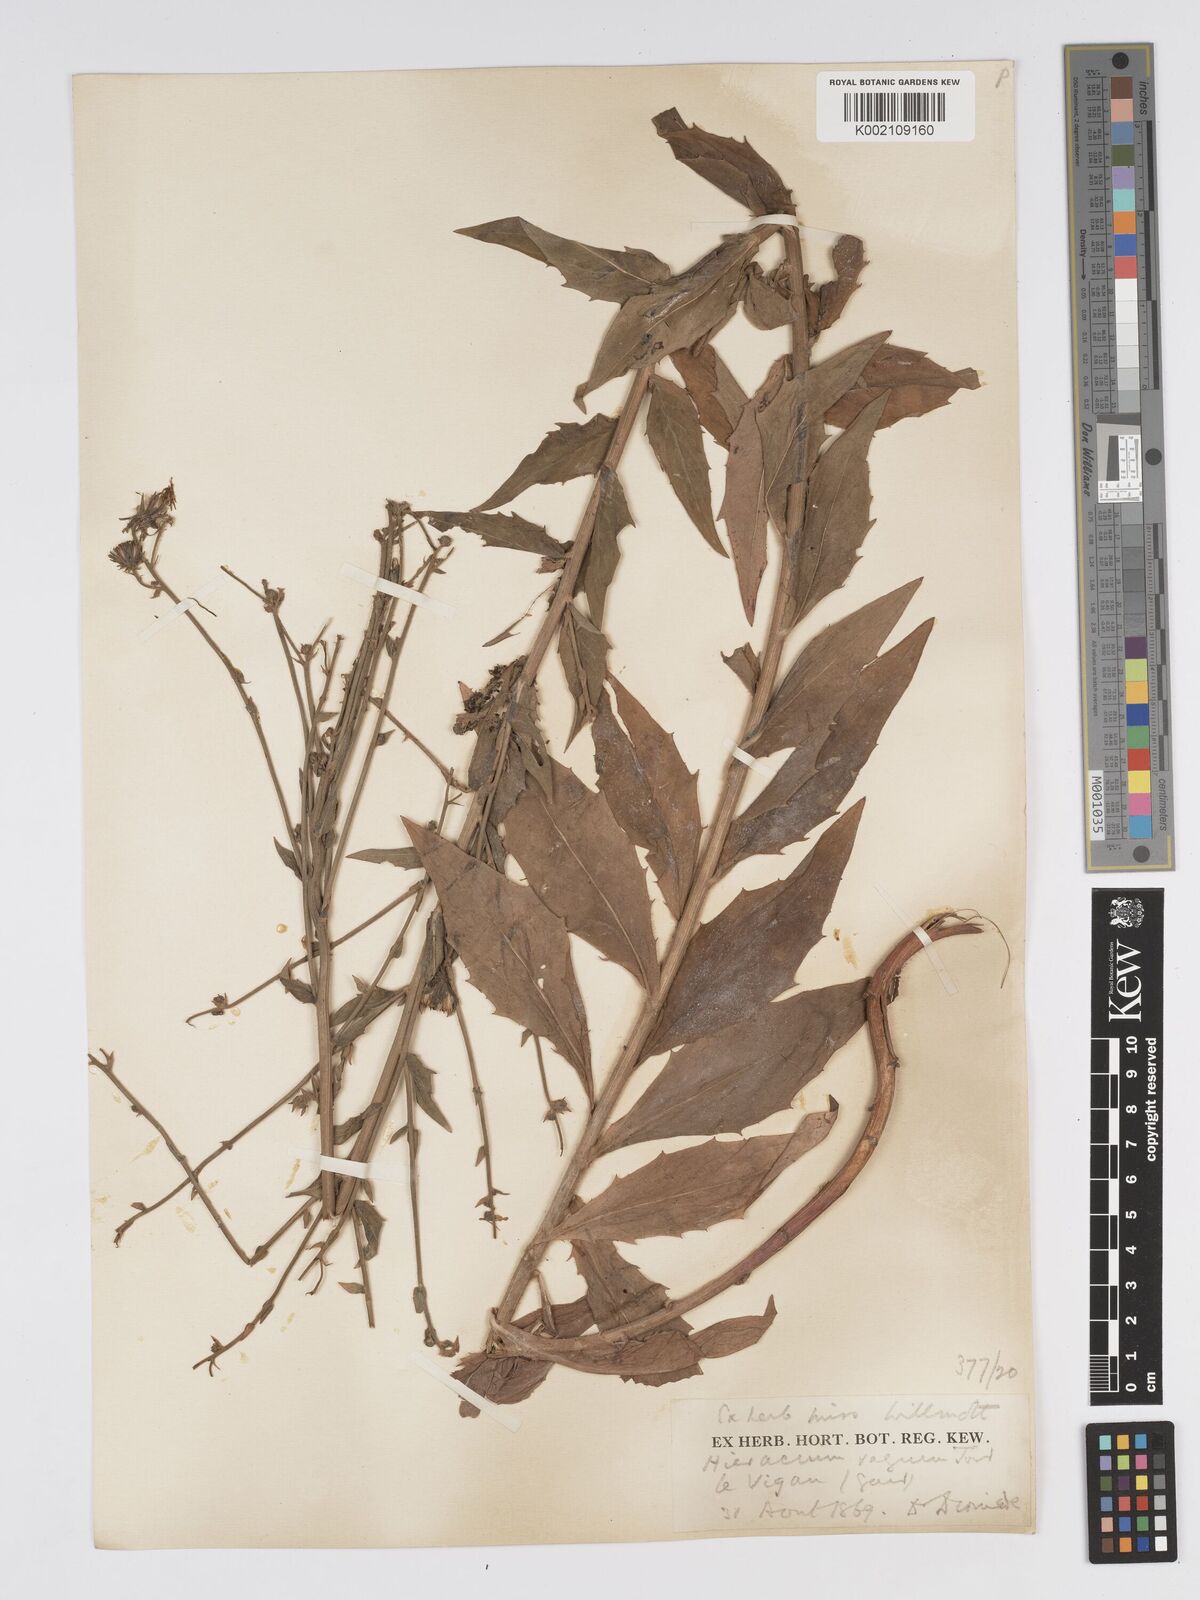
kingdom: Plantae
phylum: Tracheophyta
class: Magnoliopsida
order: Asterales
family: Asteraceae
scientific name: Asteraceae
